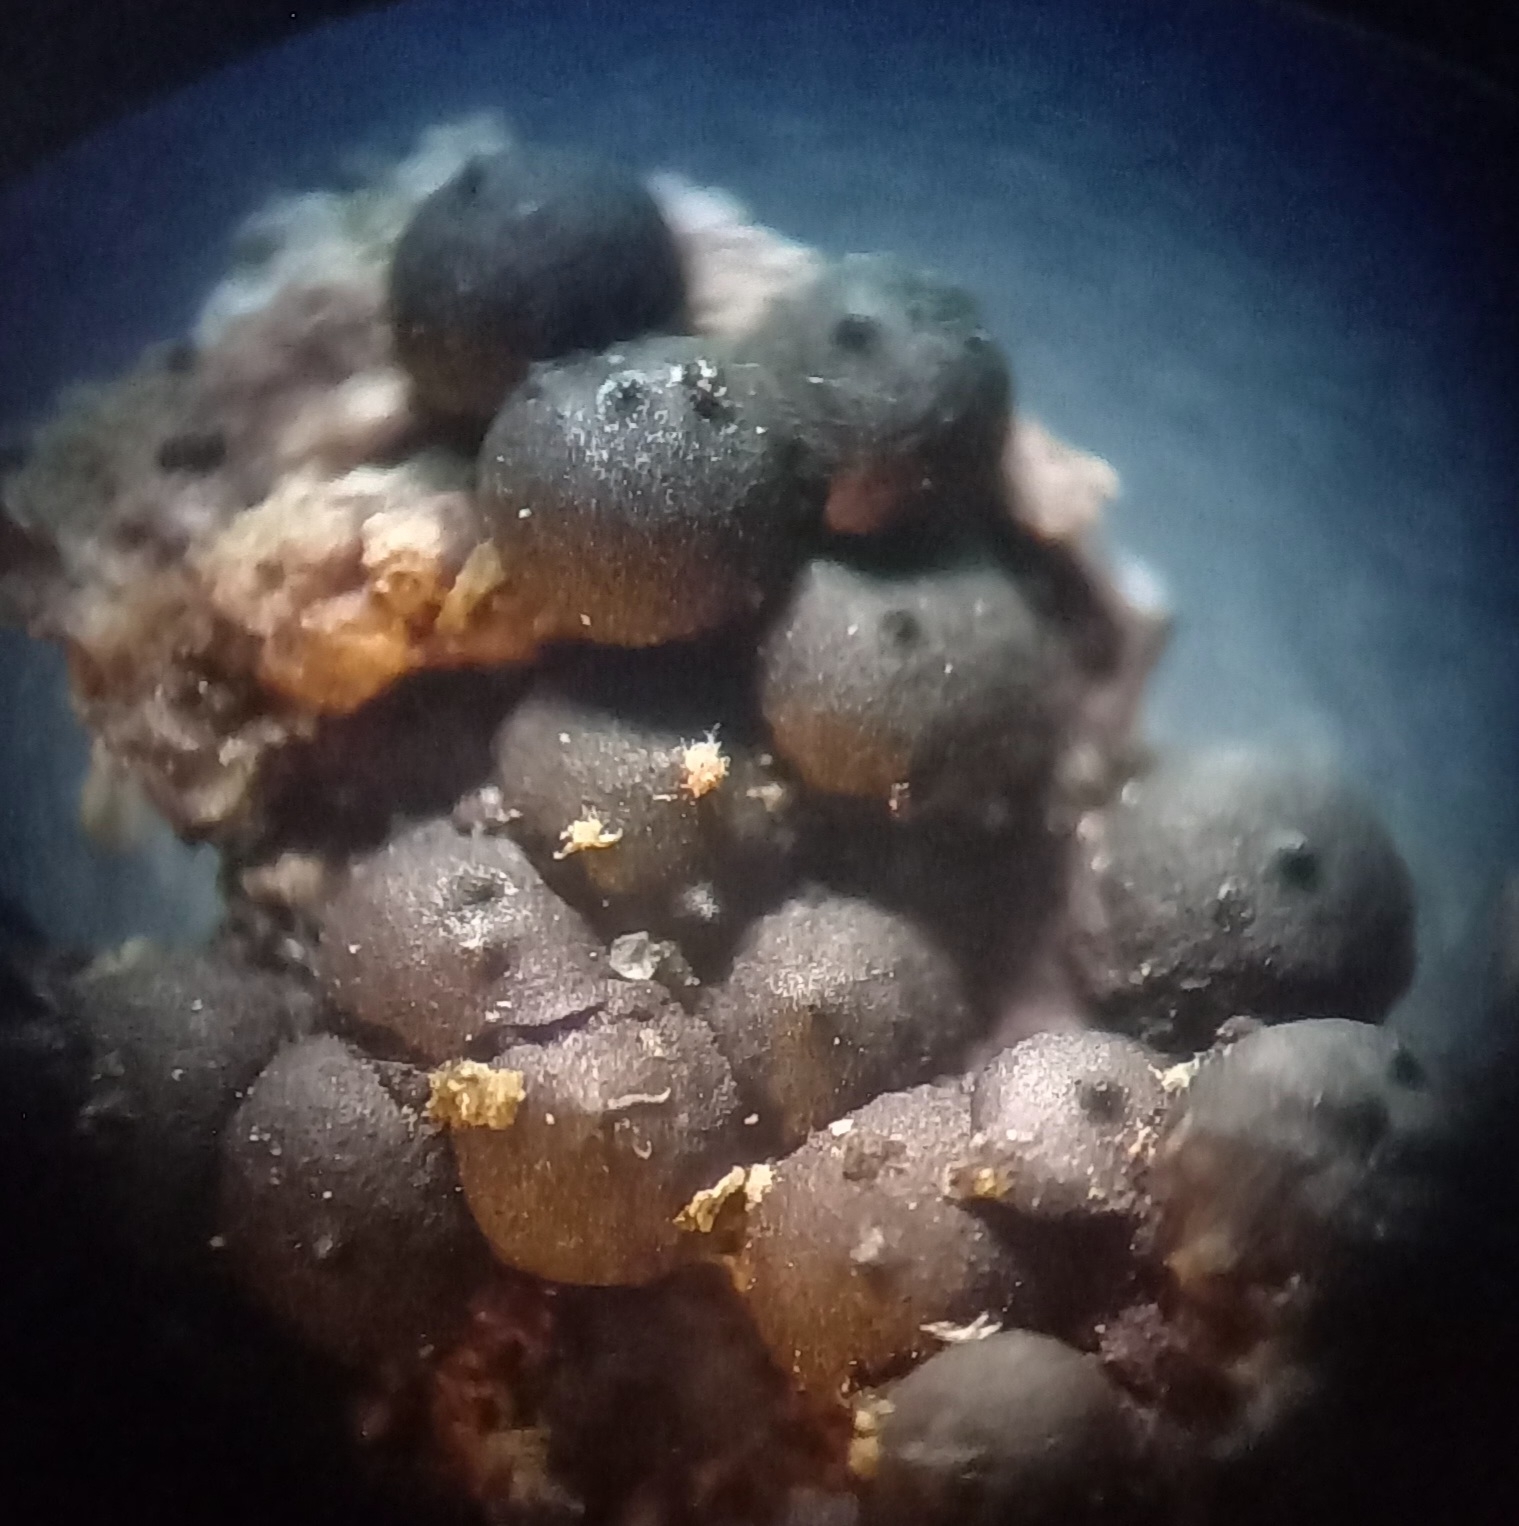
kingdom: Fungi
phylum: Ascomycota
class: Sordariomycetes
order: Xylariales
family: Xylariaceae
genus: Rosellinia
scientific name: Rosellinia marcucciana
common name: måtteløs kulkaviar
